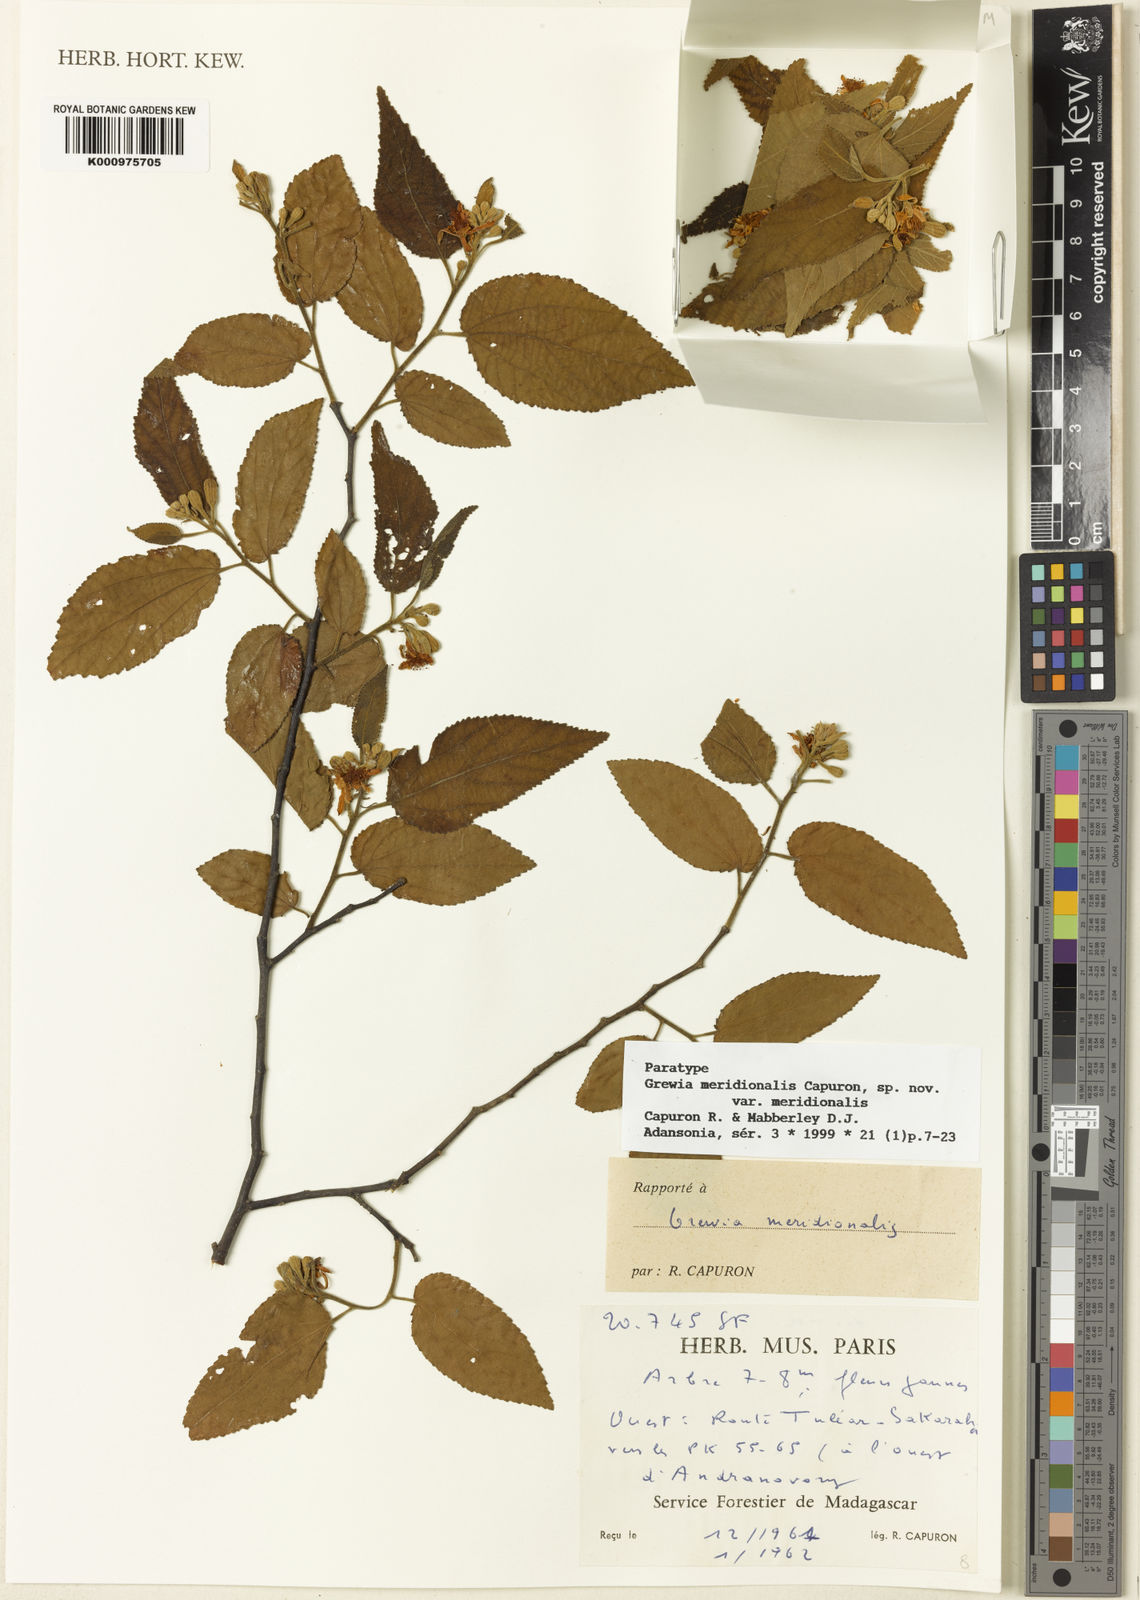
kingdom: Plantae
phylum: Tracheophyta
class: Magnoliopsida
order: Malvales
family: Malvaceae
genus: Grewia
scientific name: Grewia meridionalis
